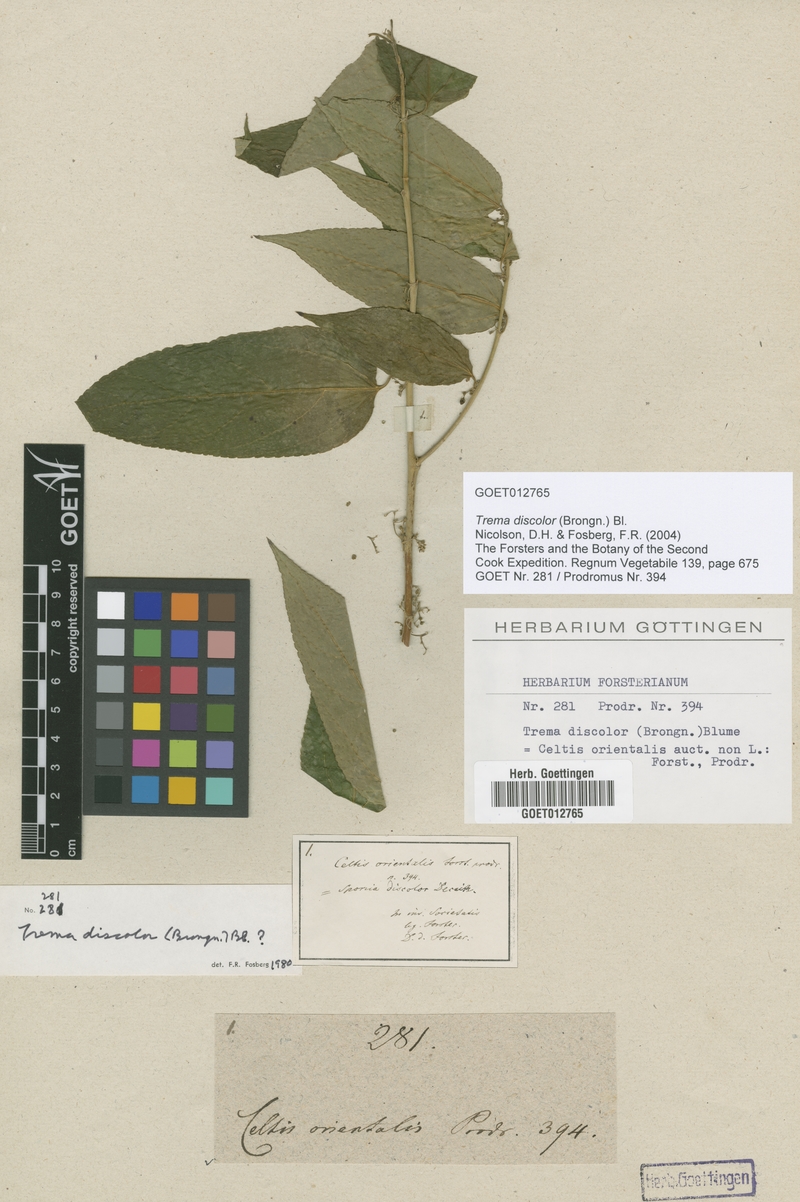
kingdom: Plantae
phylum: Tracheophyta
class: Magnoliopsida
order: Rosales
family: Cannabaceae
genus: Trema
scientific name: Trema discolor
